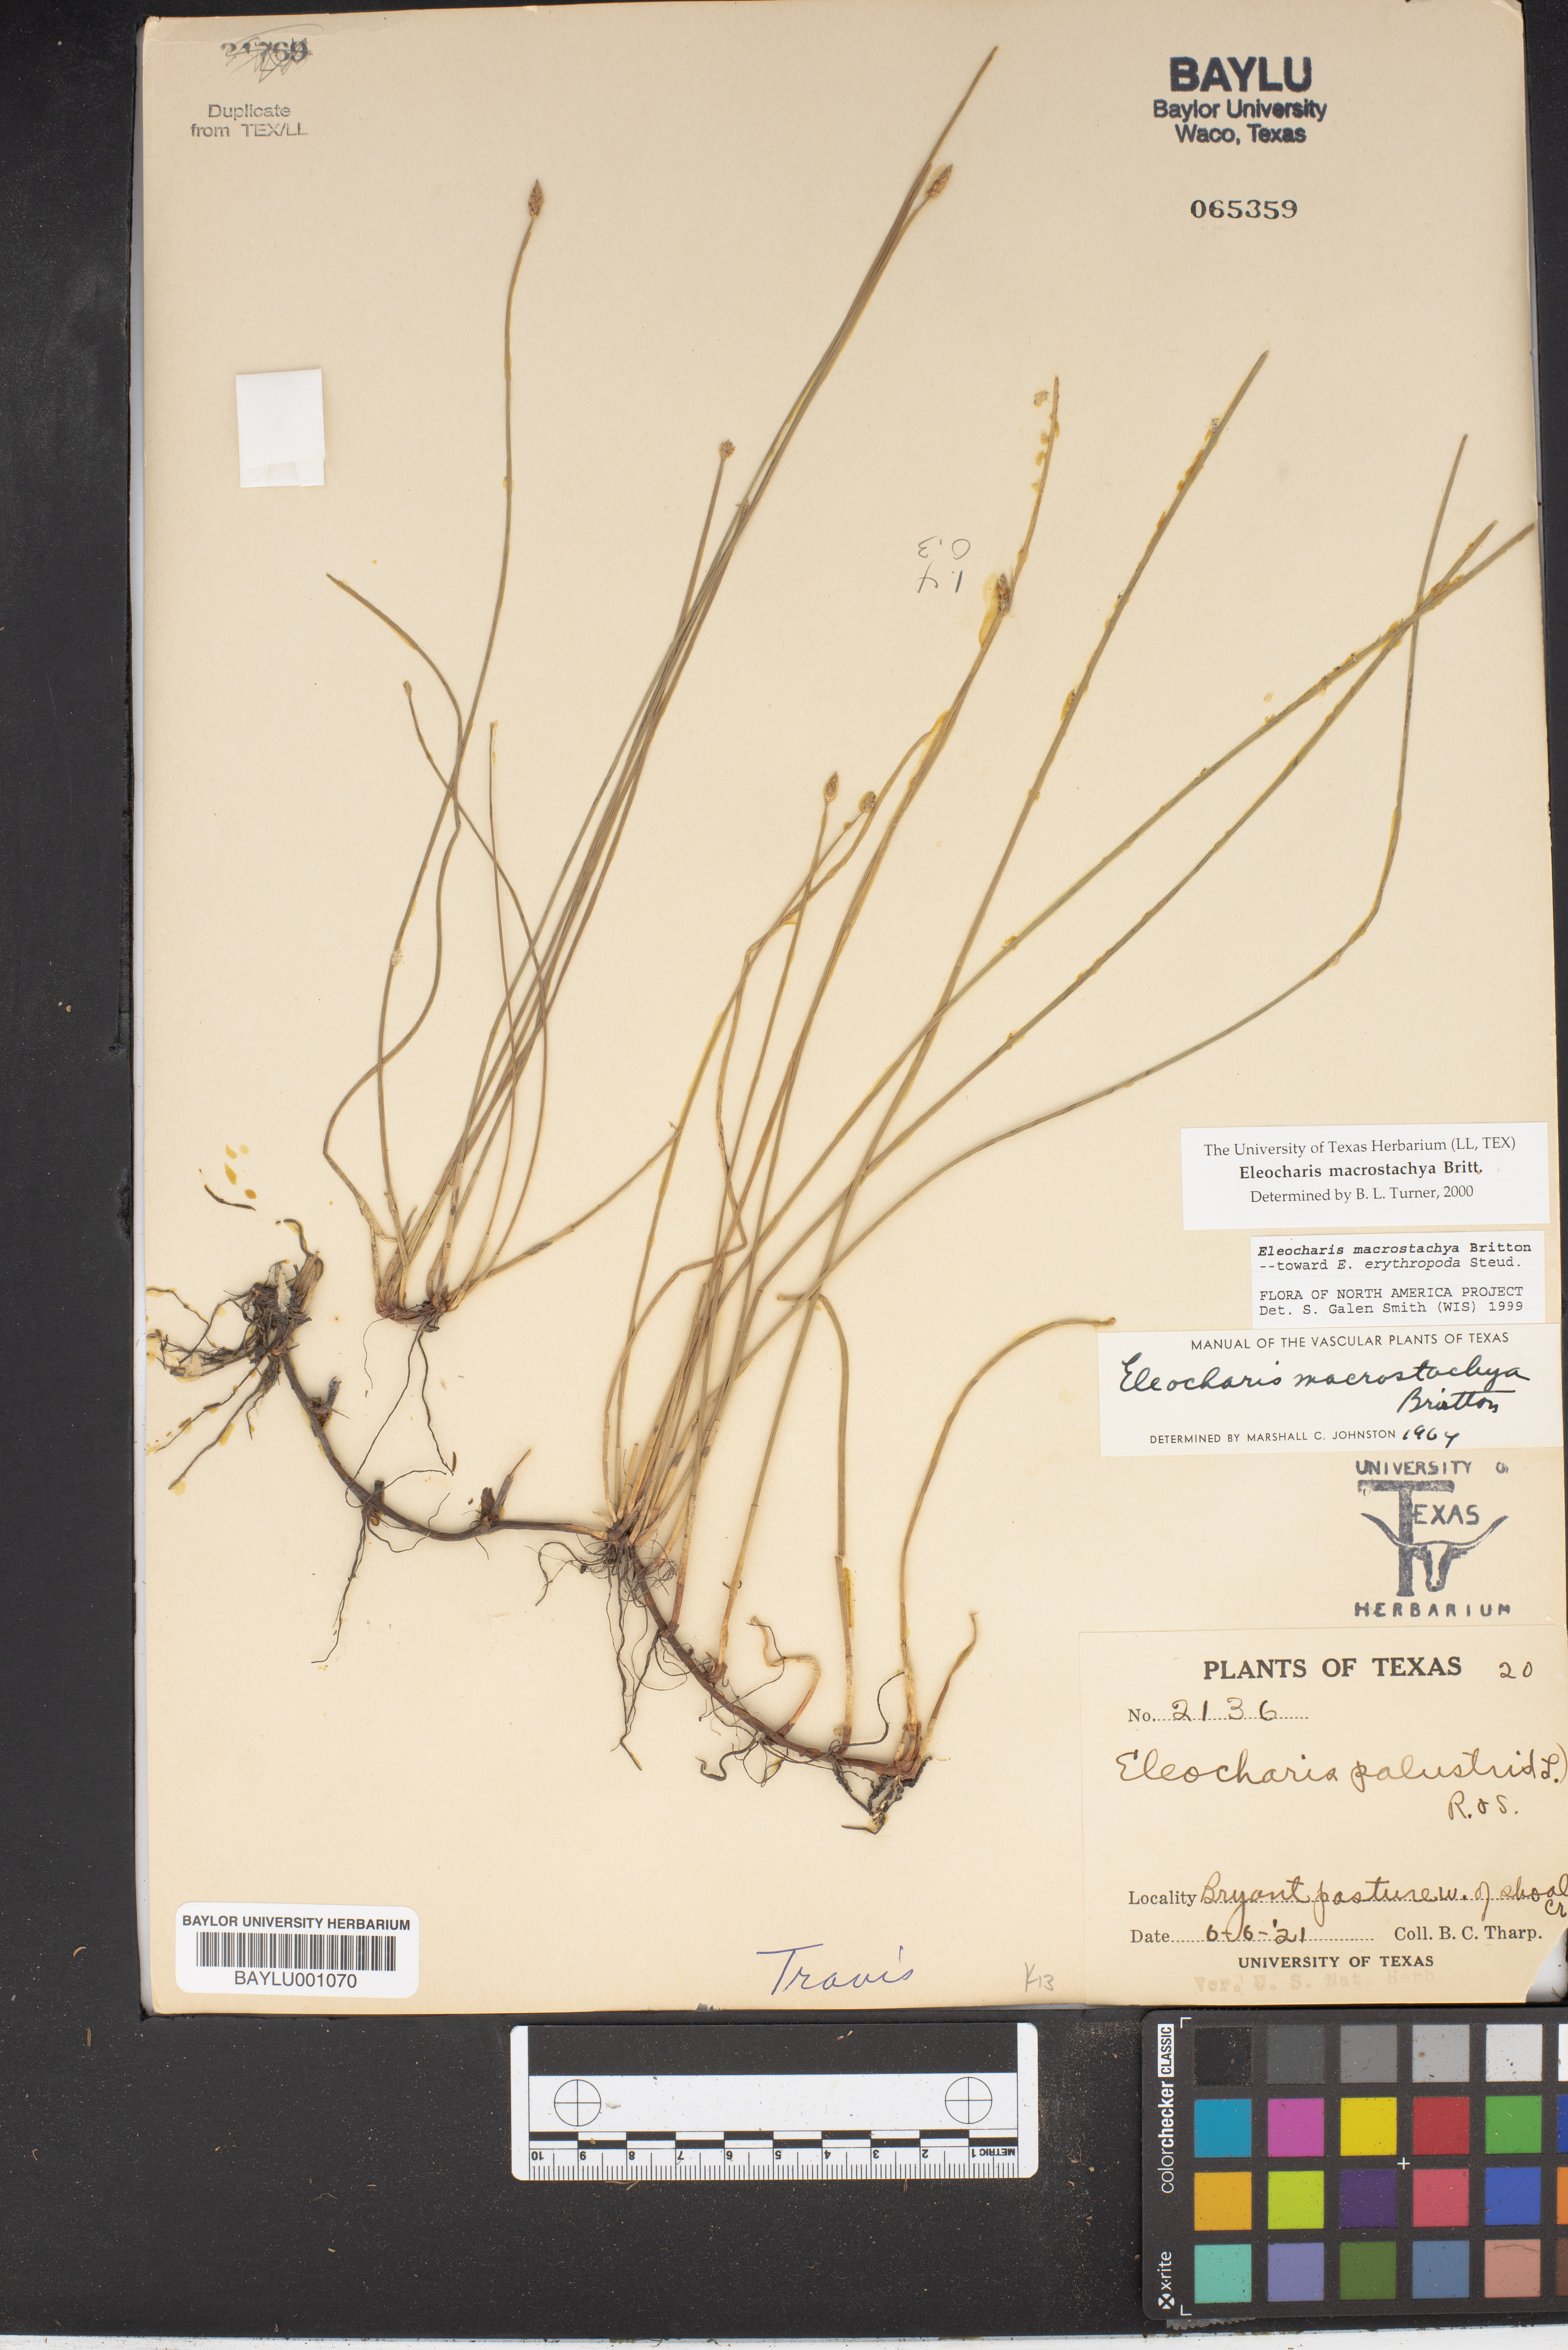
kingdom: Plantae
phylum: Tracheophyta
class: Liliopsida
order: Poales
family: Cyperaceae
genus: Eleocharis
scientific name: Eleocharis macrostachya
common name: Pale spikerush
